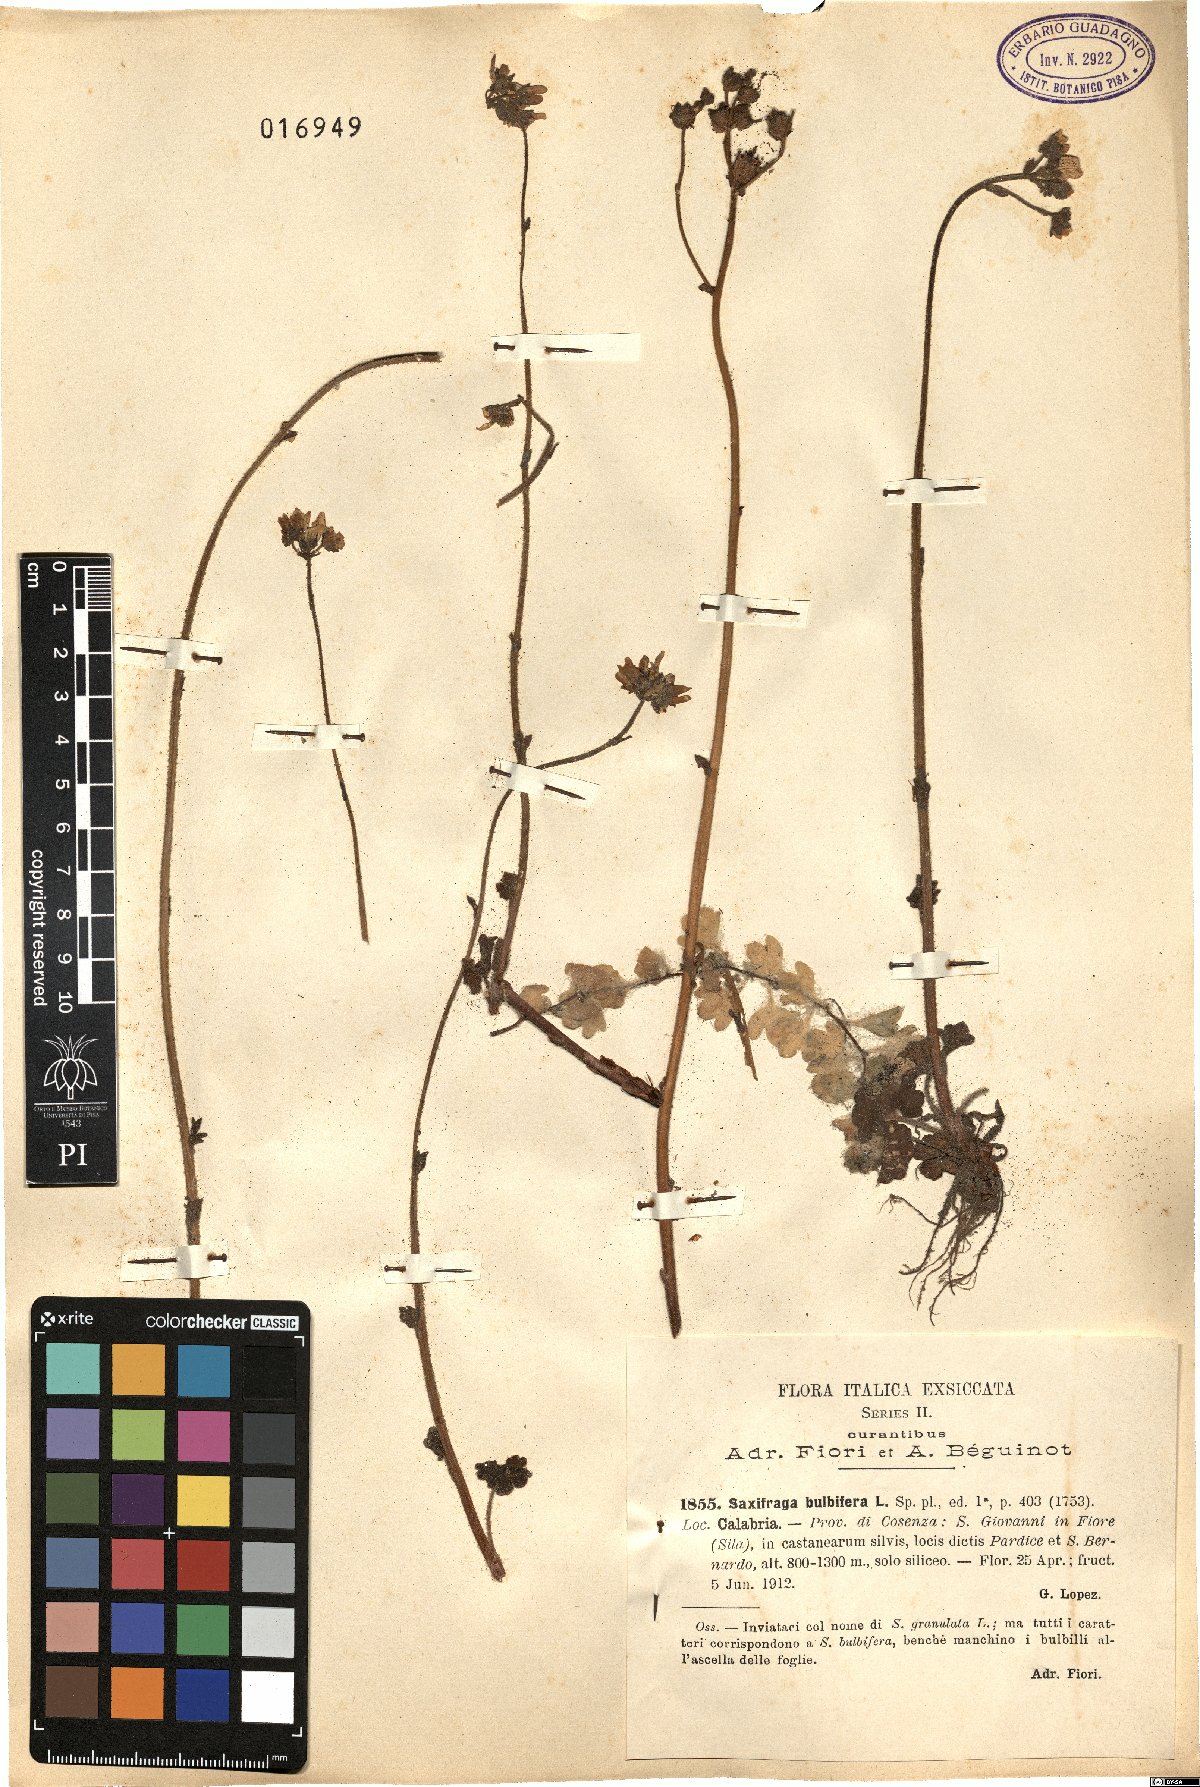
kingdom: Plantae
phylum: Tracheophyta
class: Magnoliopsida
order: Saxifragales
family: Saxifragaceae
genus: Saxifraga
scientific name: Saxifraga bulbifera
